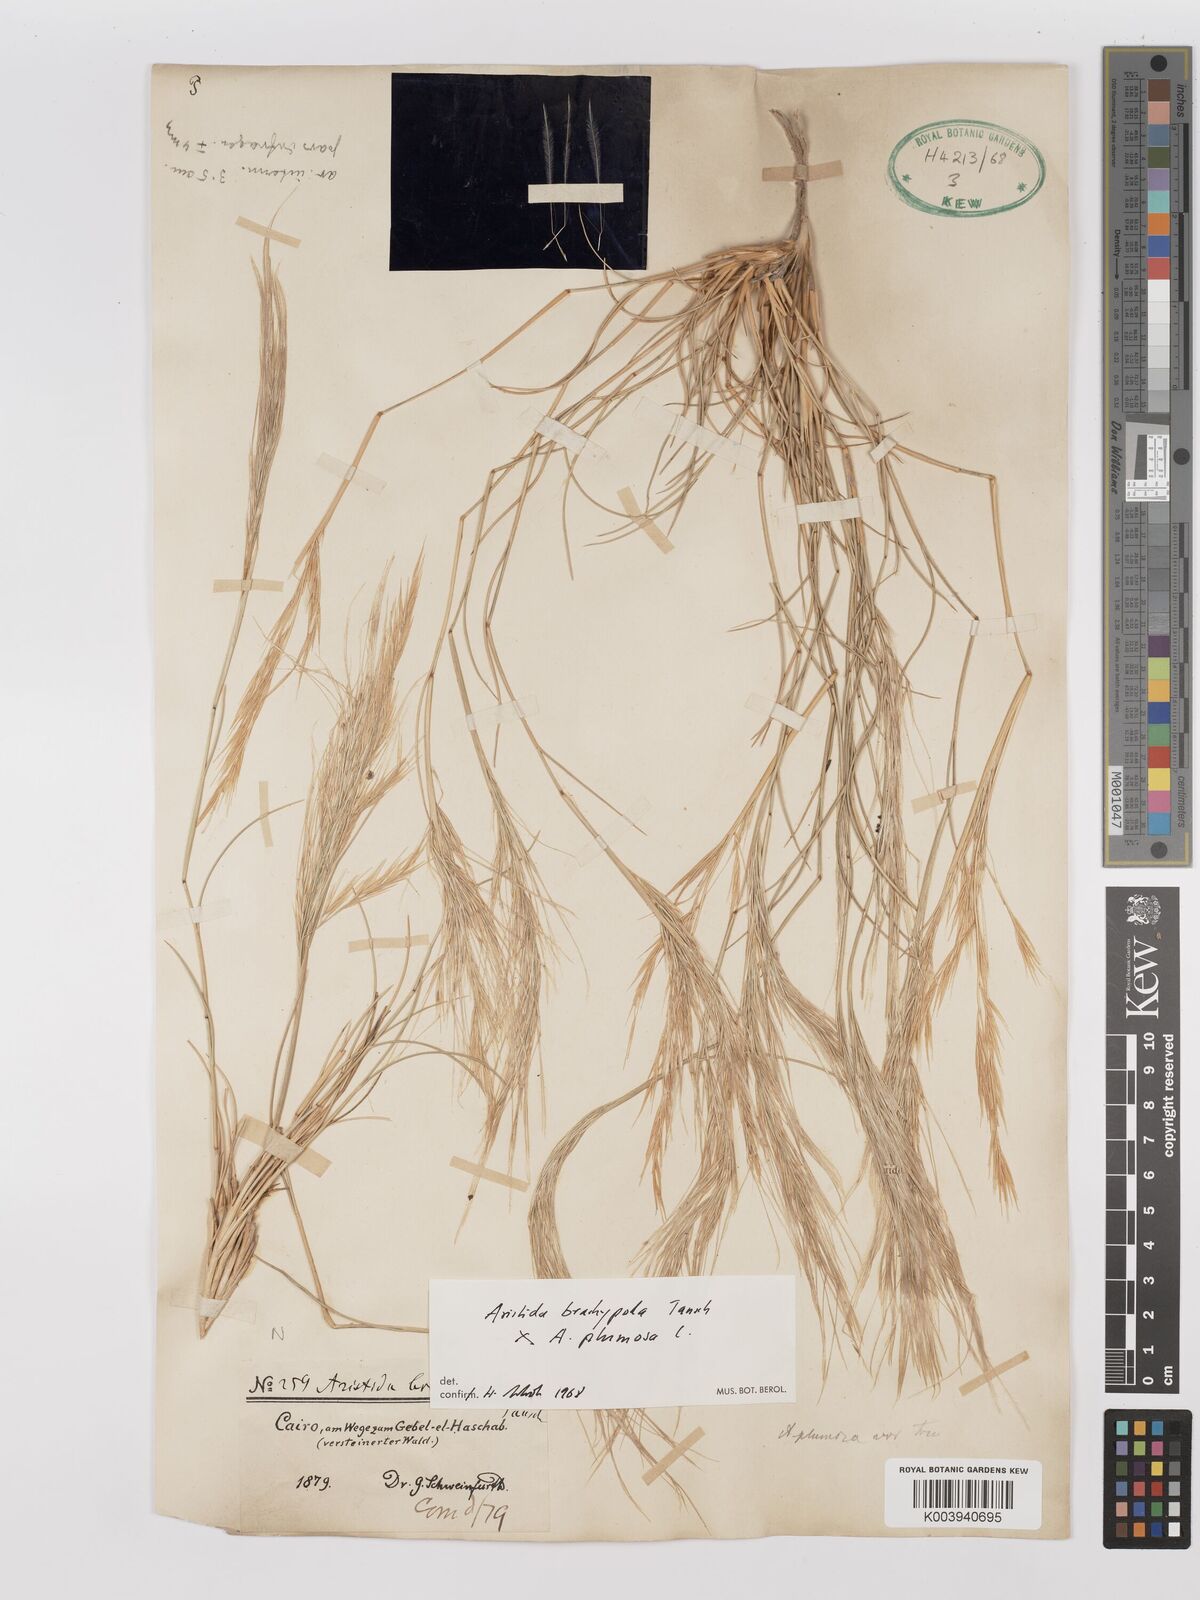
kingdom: Plantae
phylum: Tracheophyta
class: Liliopsida
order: Poales
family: Poaceae
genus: Stipagrostis
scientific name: Stipagrostis plumosa
